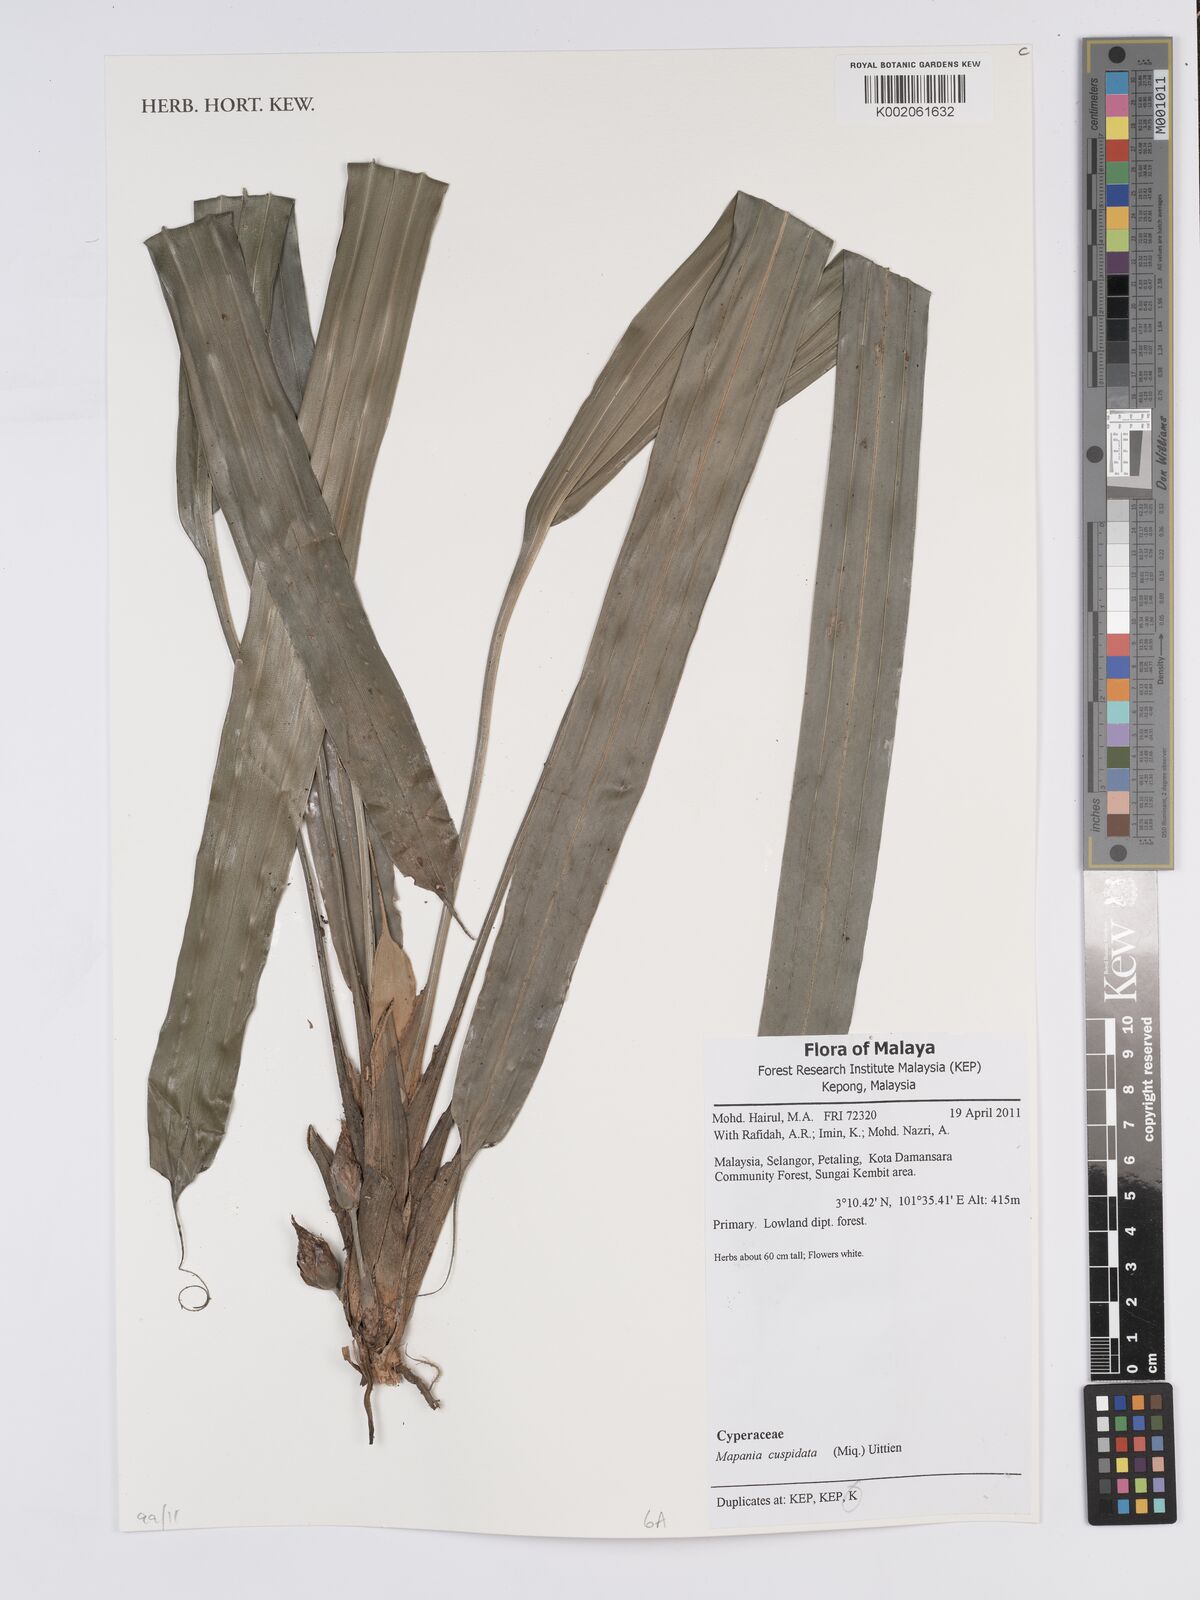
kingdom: Plantae
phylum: Tracheophyta
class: Liliopsida
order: Poales
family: Cyperaceae
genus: Mapania
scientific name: Mapania cuspidata
